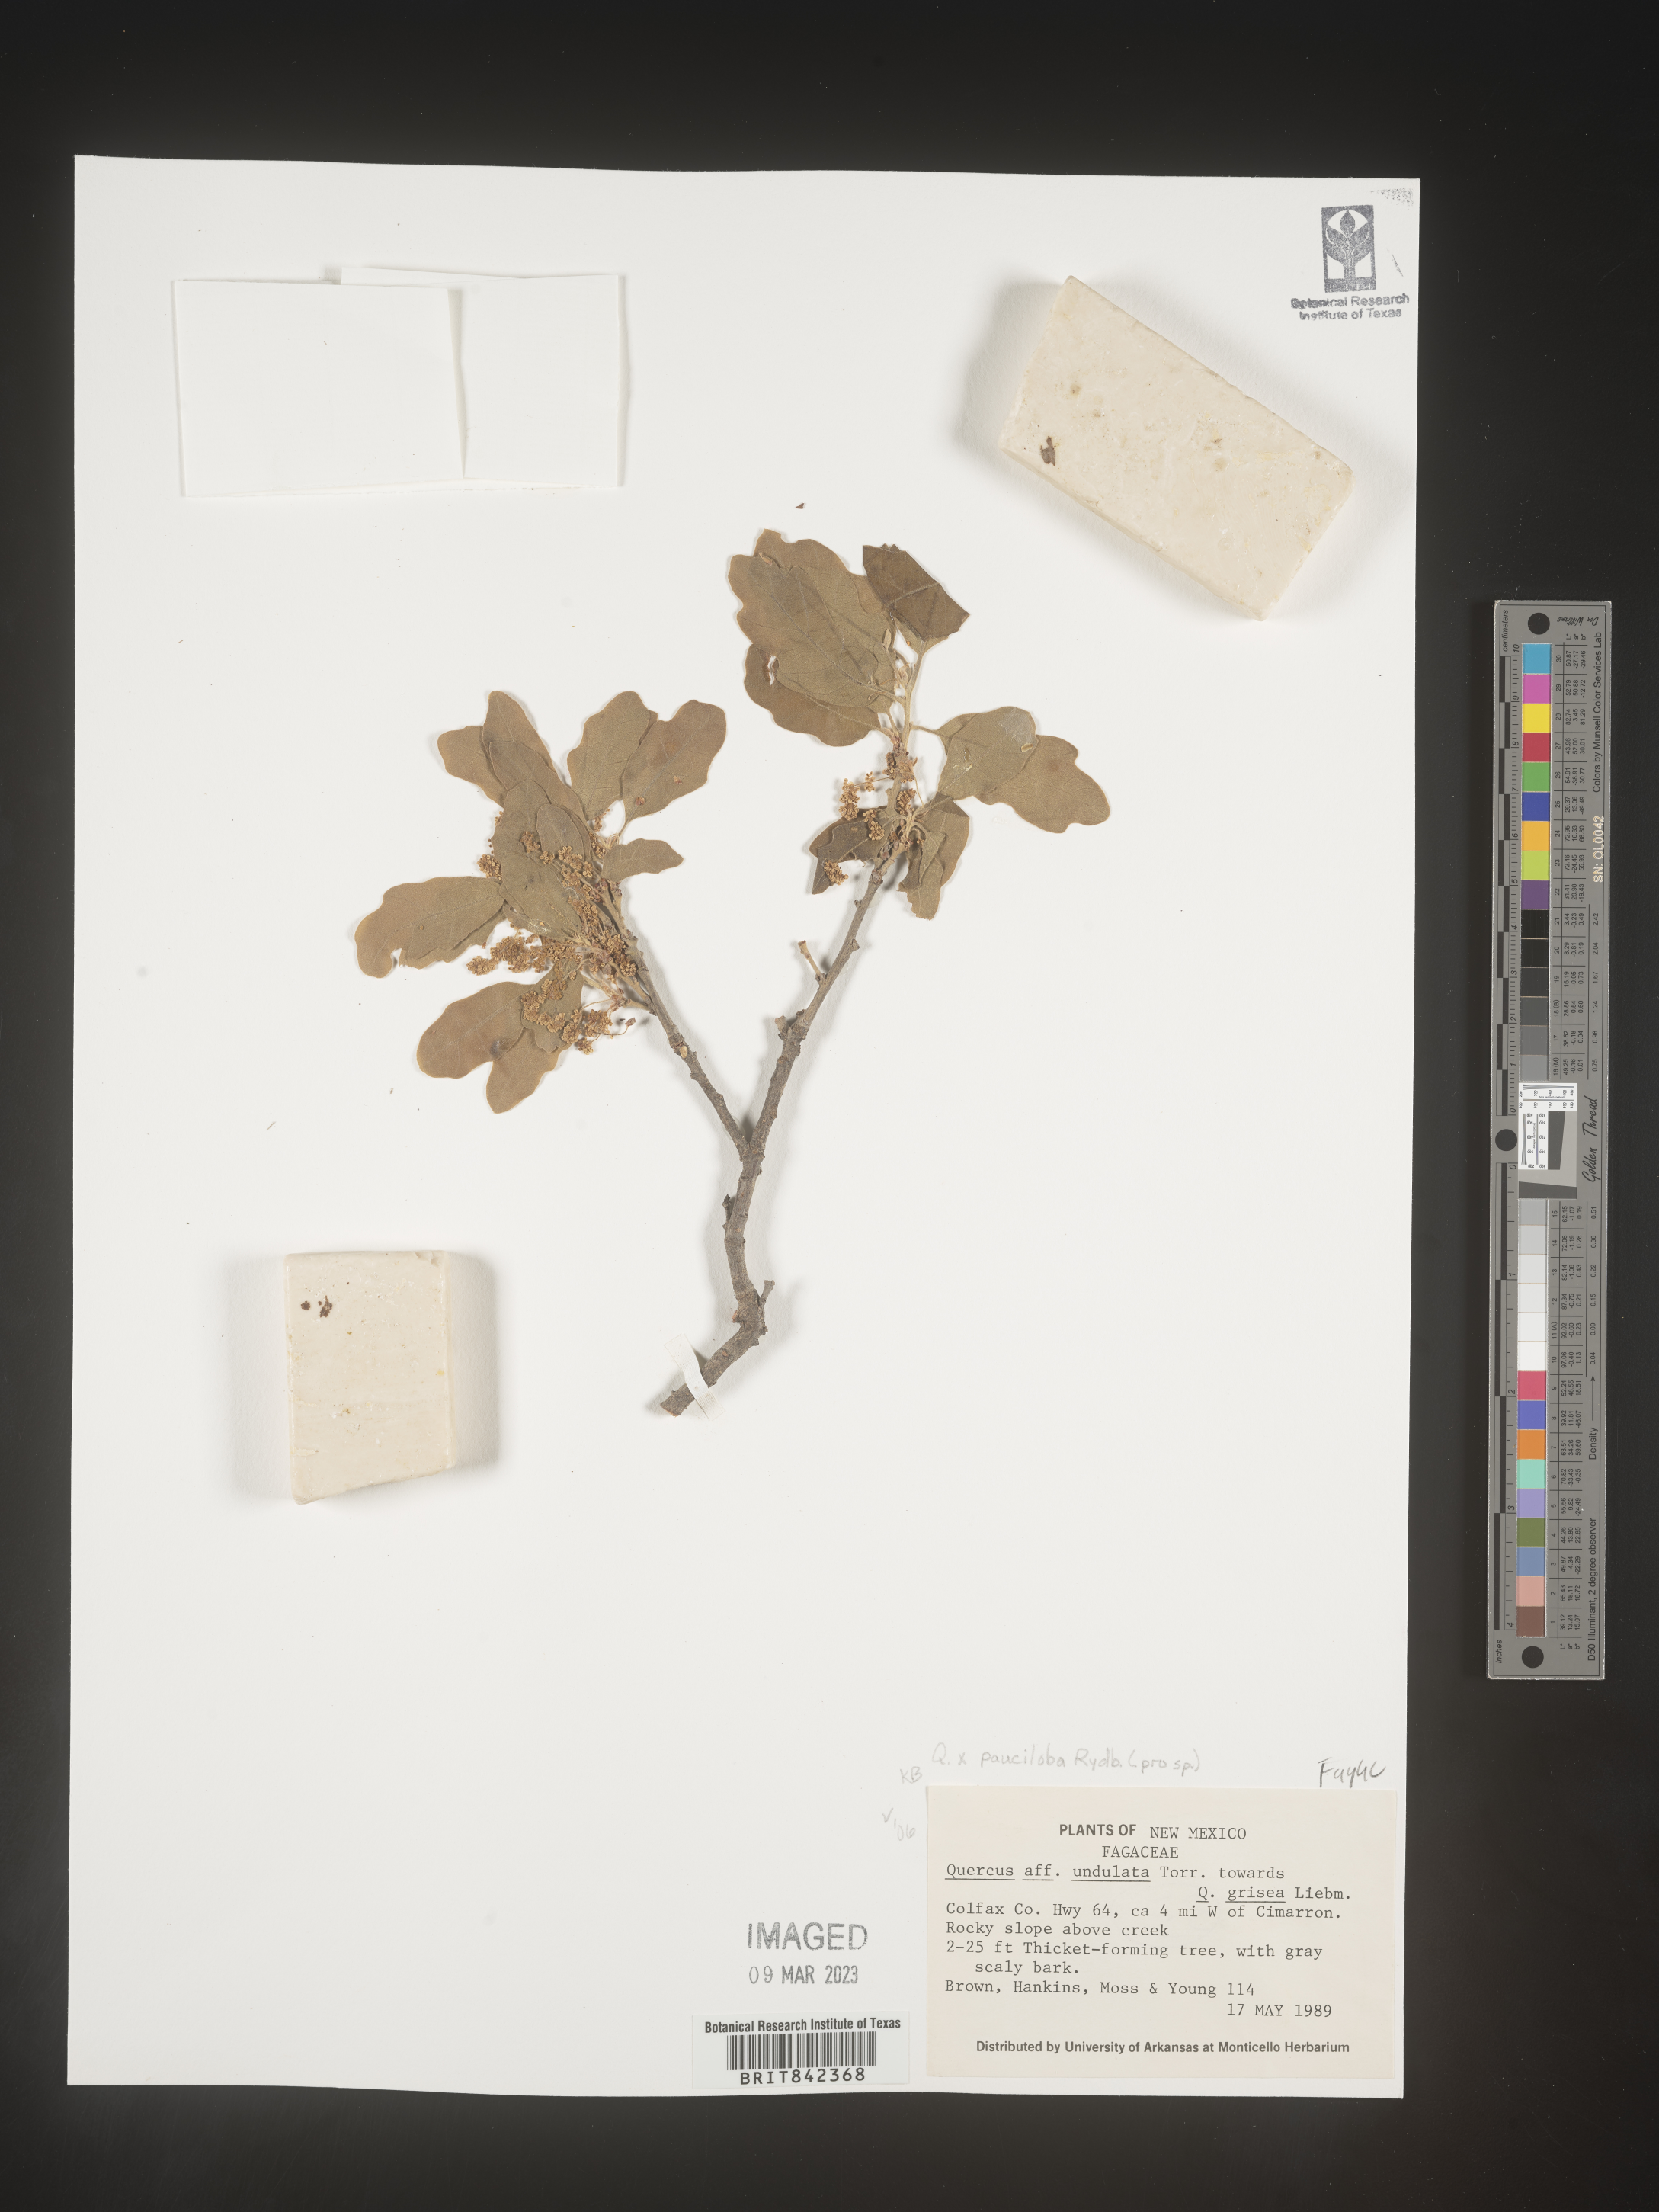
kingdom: Plantae
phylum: Tracheophyta
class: Magnoliopsida
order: Fagales
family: Fagaceae
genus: Quercus
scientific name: Quercus
